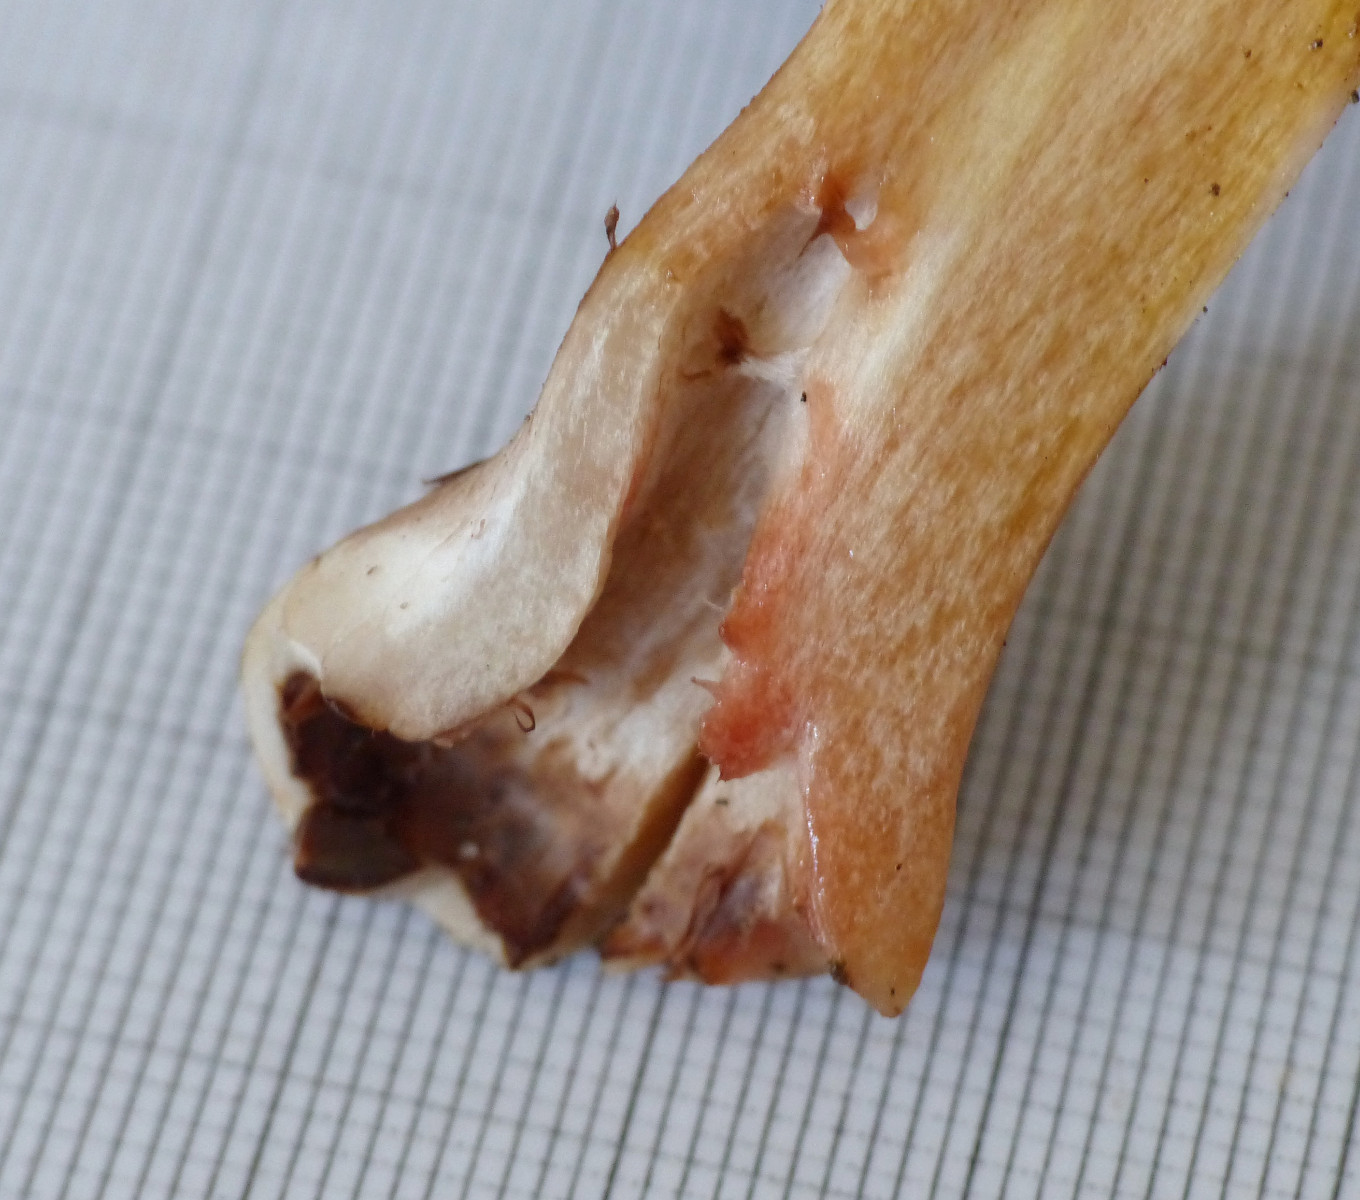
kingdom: Fungi
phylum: Basidiomycota
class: Agaricomycetes
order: Agaricales
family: Cortinariaceae
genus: Cortinarius
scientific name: Cortinarius largus
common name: violetrandet slørhat
